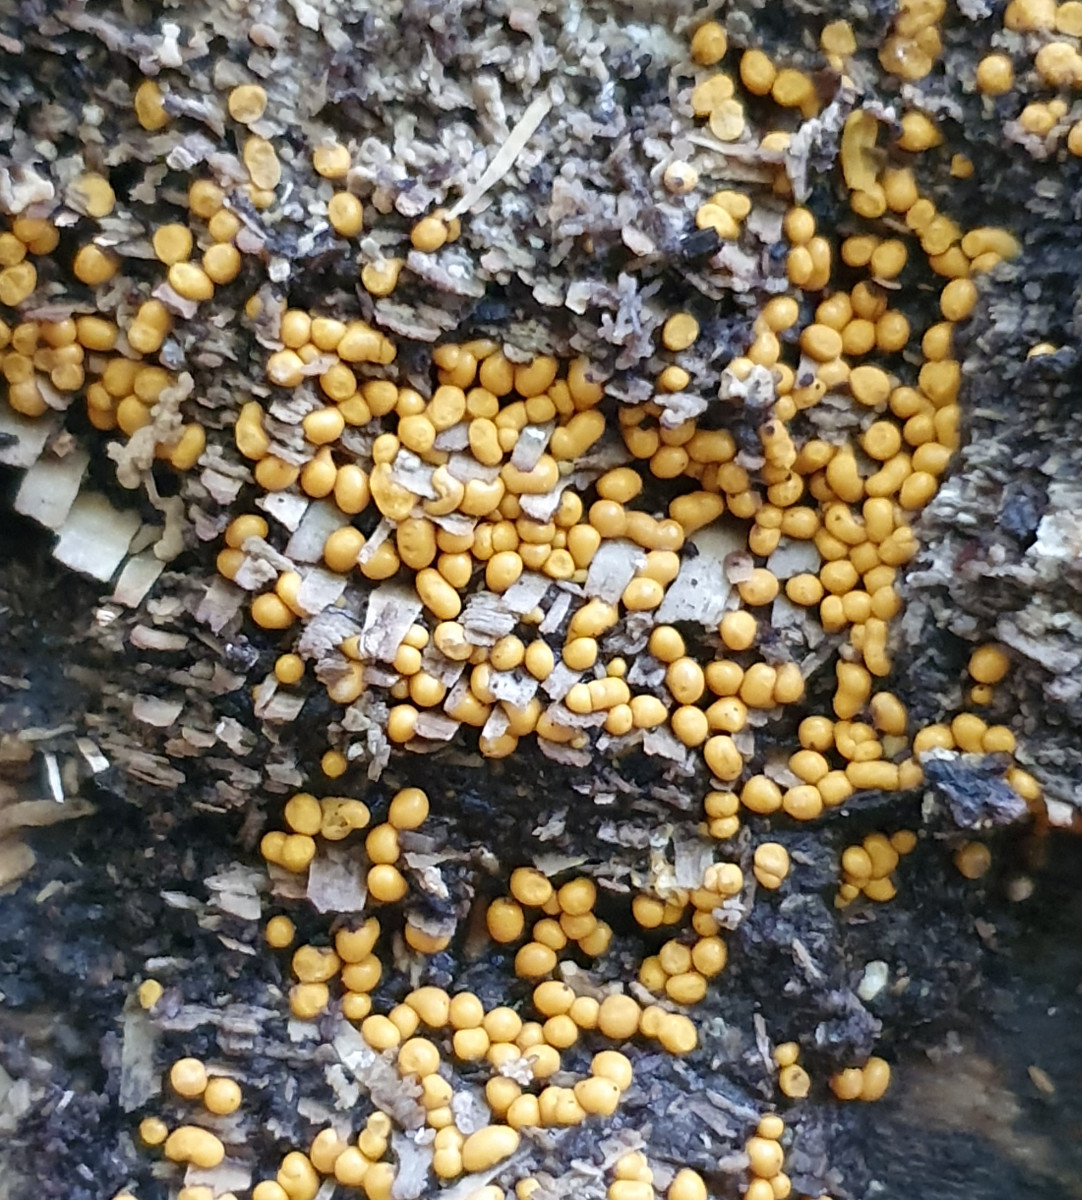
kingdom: Protozoa
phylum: Mycetozoa
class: Myxomycetes
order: Trichiales
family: Trichiaceae
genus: Trichia
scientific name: Trichia varia
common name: foranderlig hårbold
